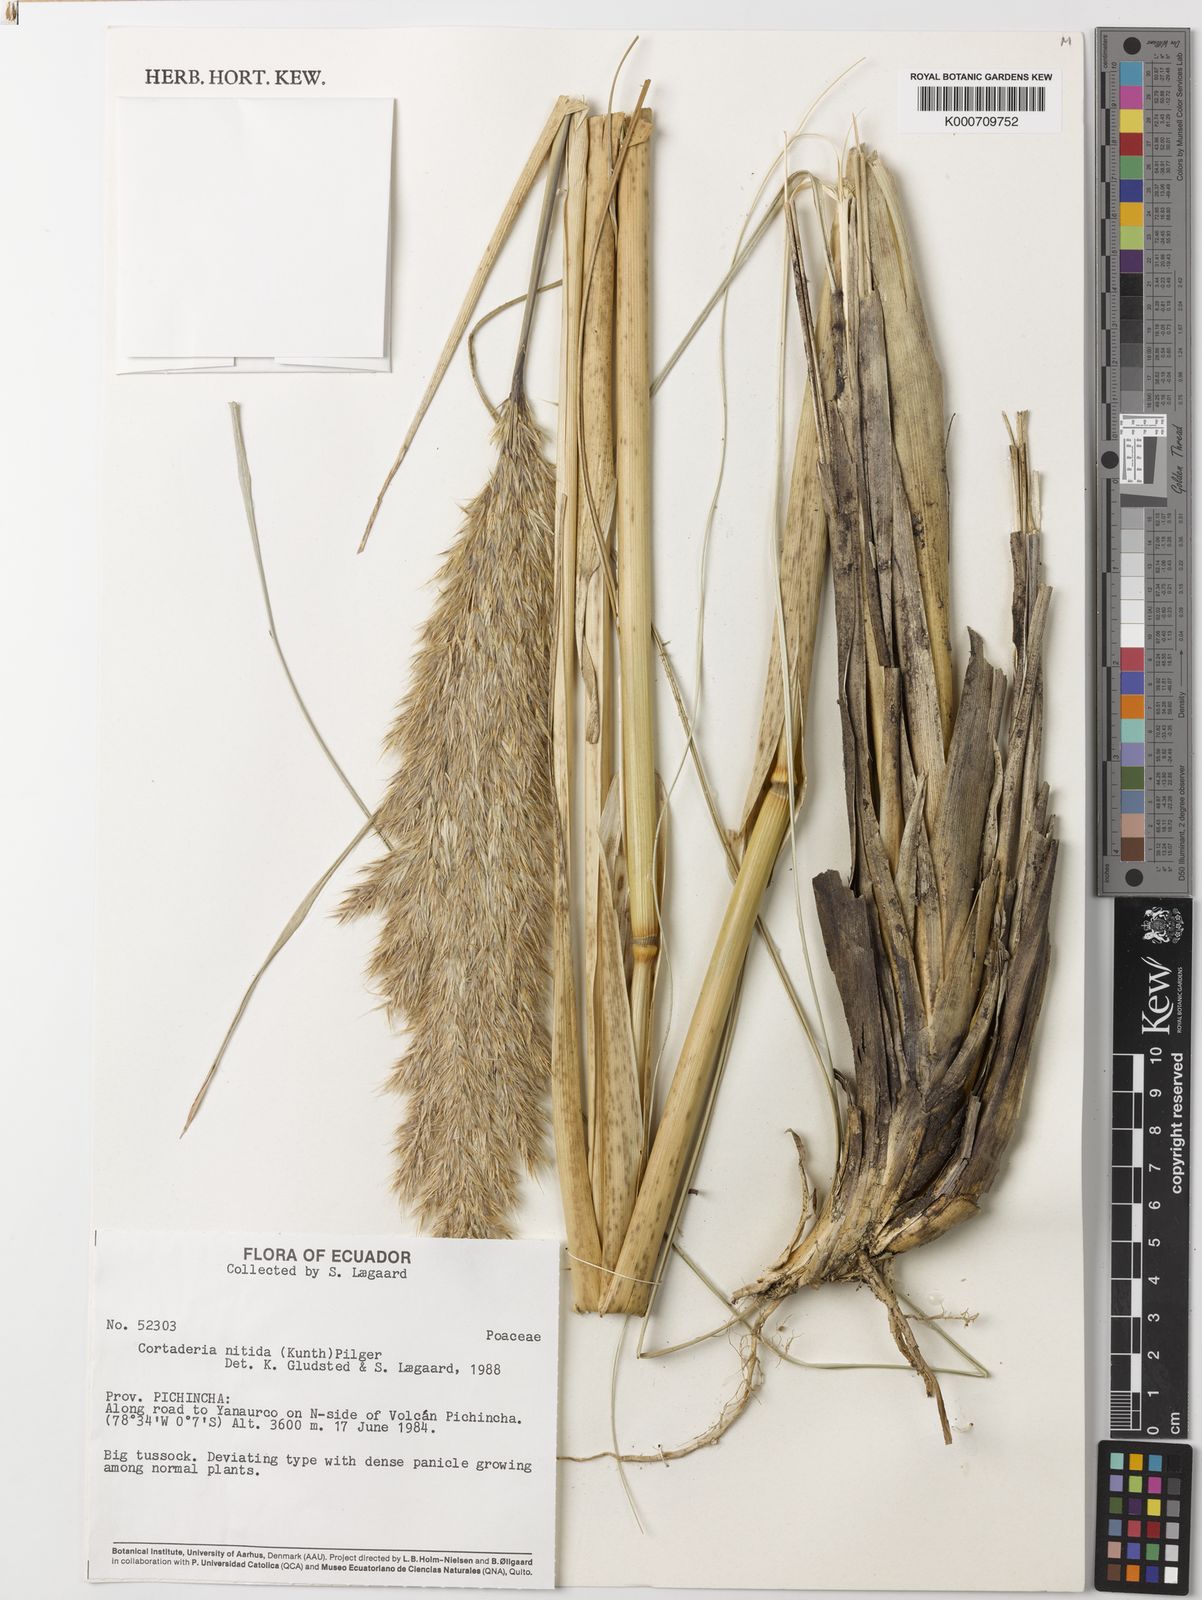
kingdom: Plantae
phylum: Tracheophyta
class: Liliopsida
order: Poales
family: Poaceae
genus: Cortaderia
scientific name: Cortaderia nitida
